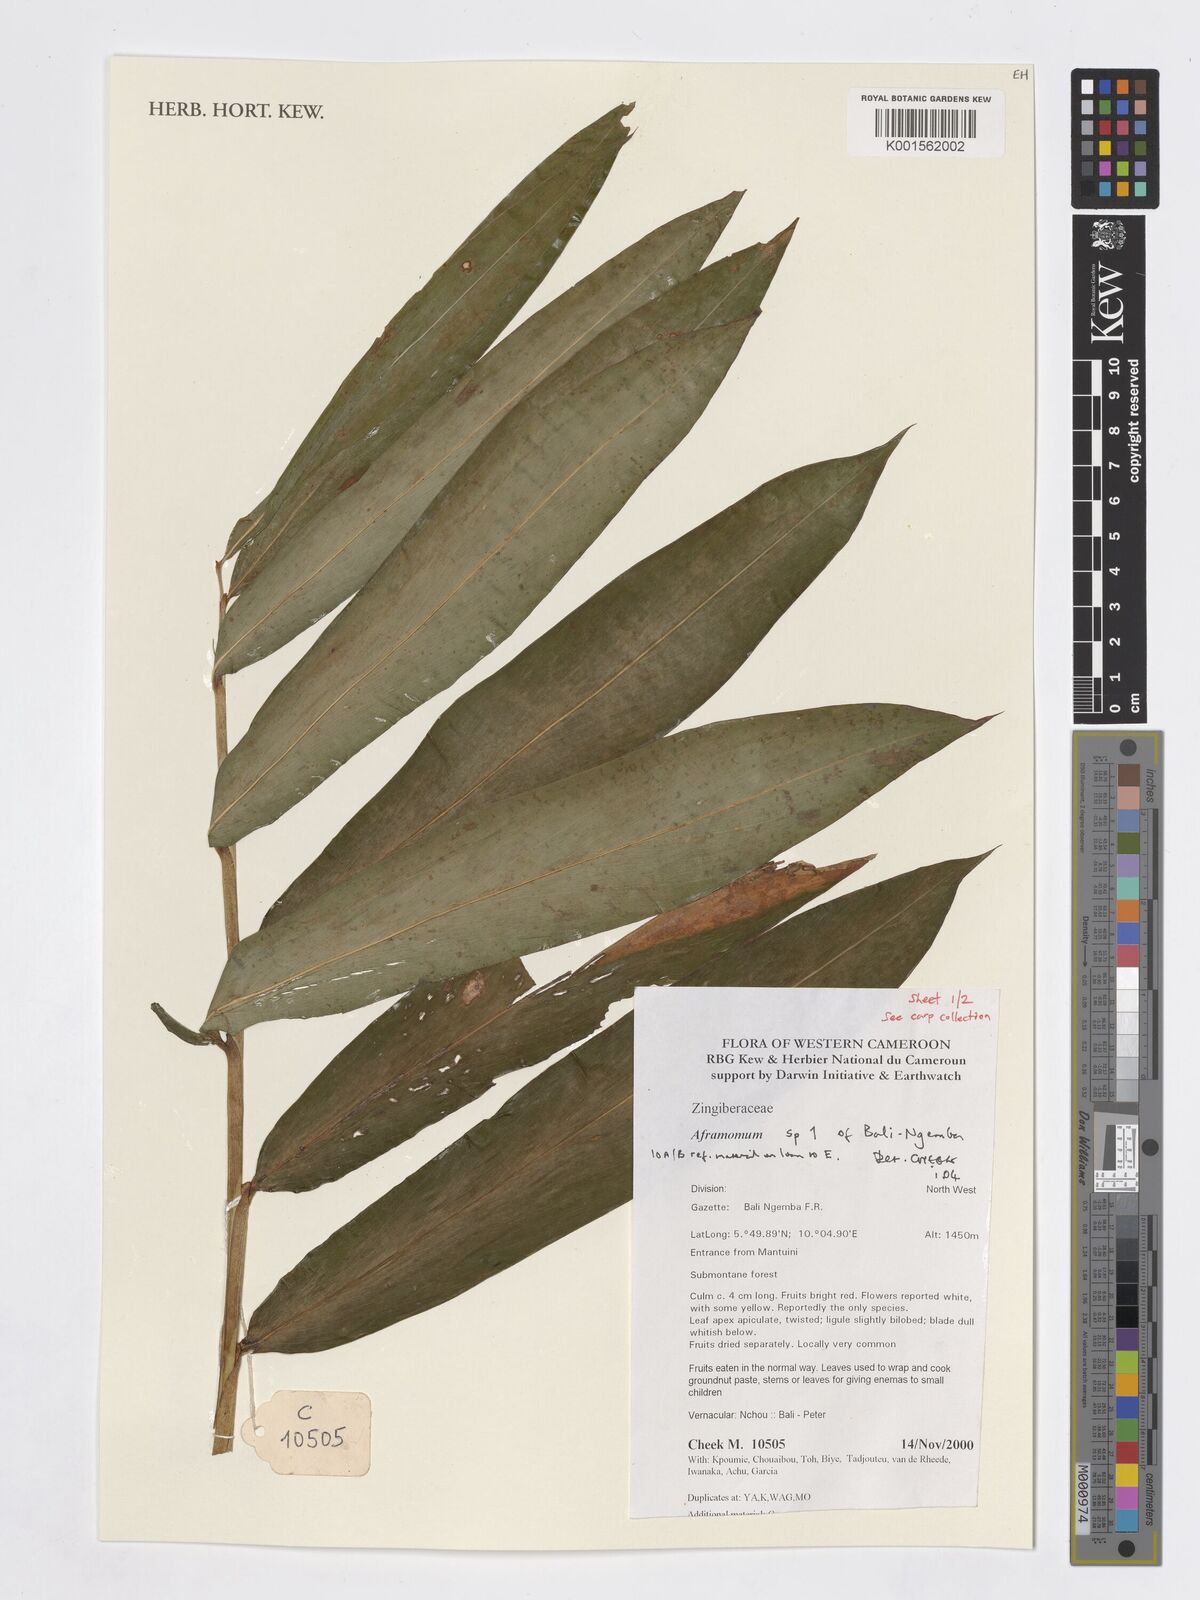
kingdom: Plantae
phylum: Tracheophyta
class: Liliopsida
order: Zingiberales
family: Zingiberaceae
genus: Aframomum
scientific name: Aframomum
